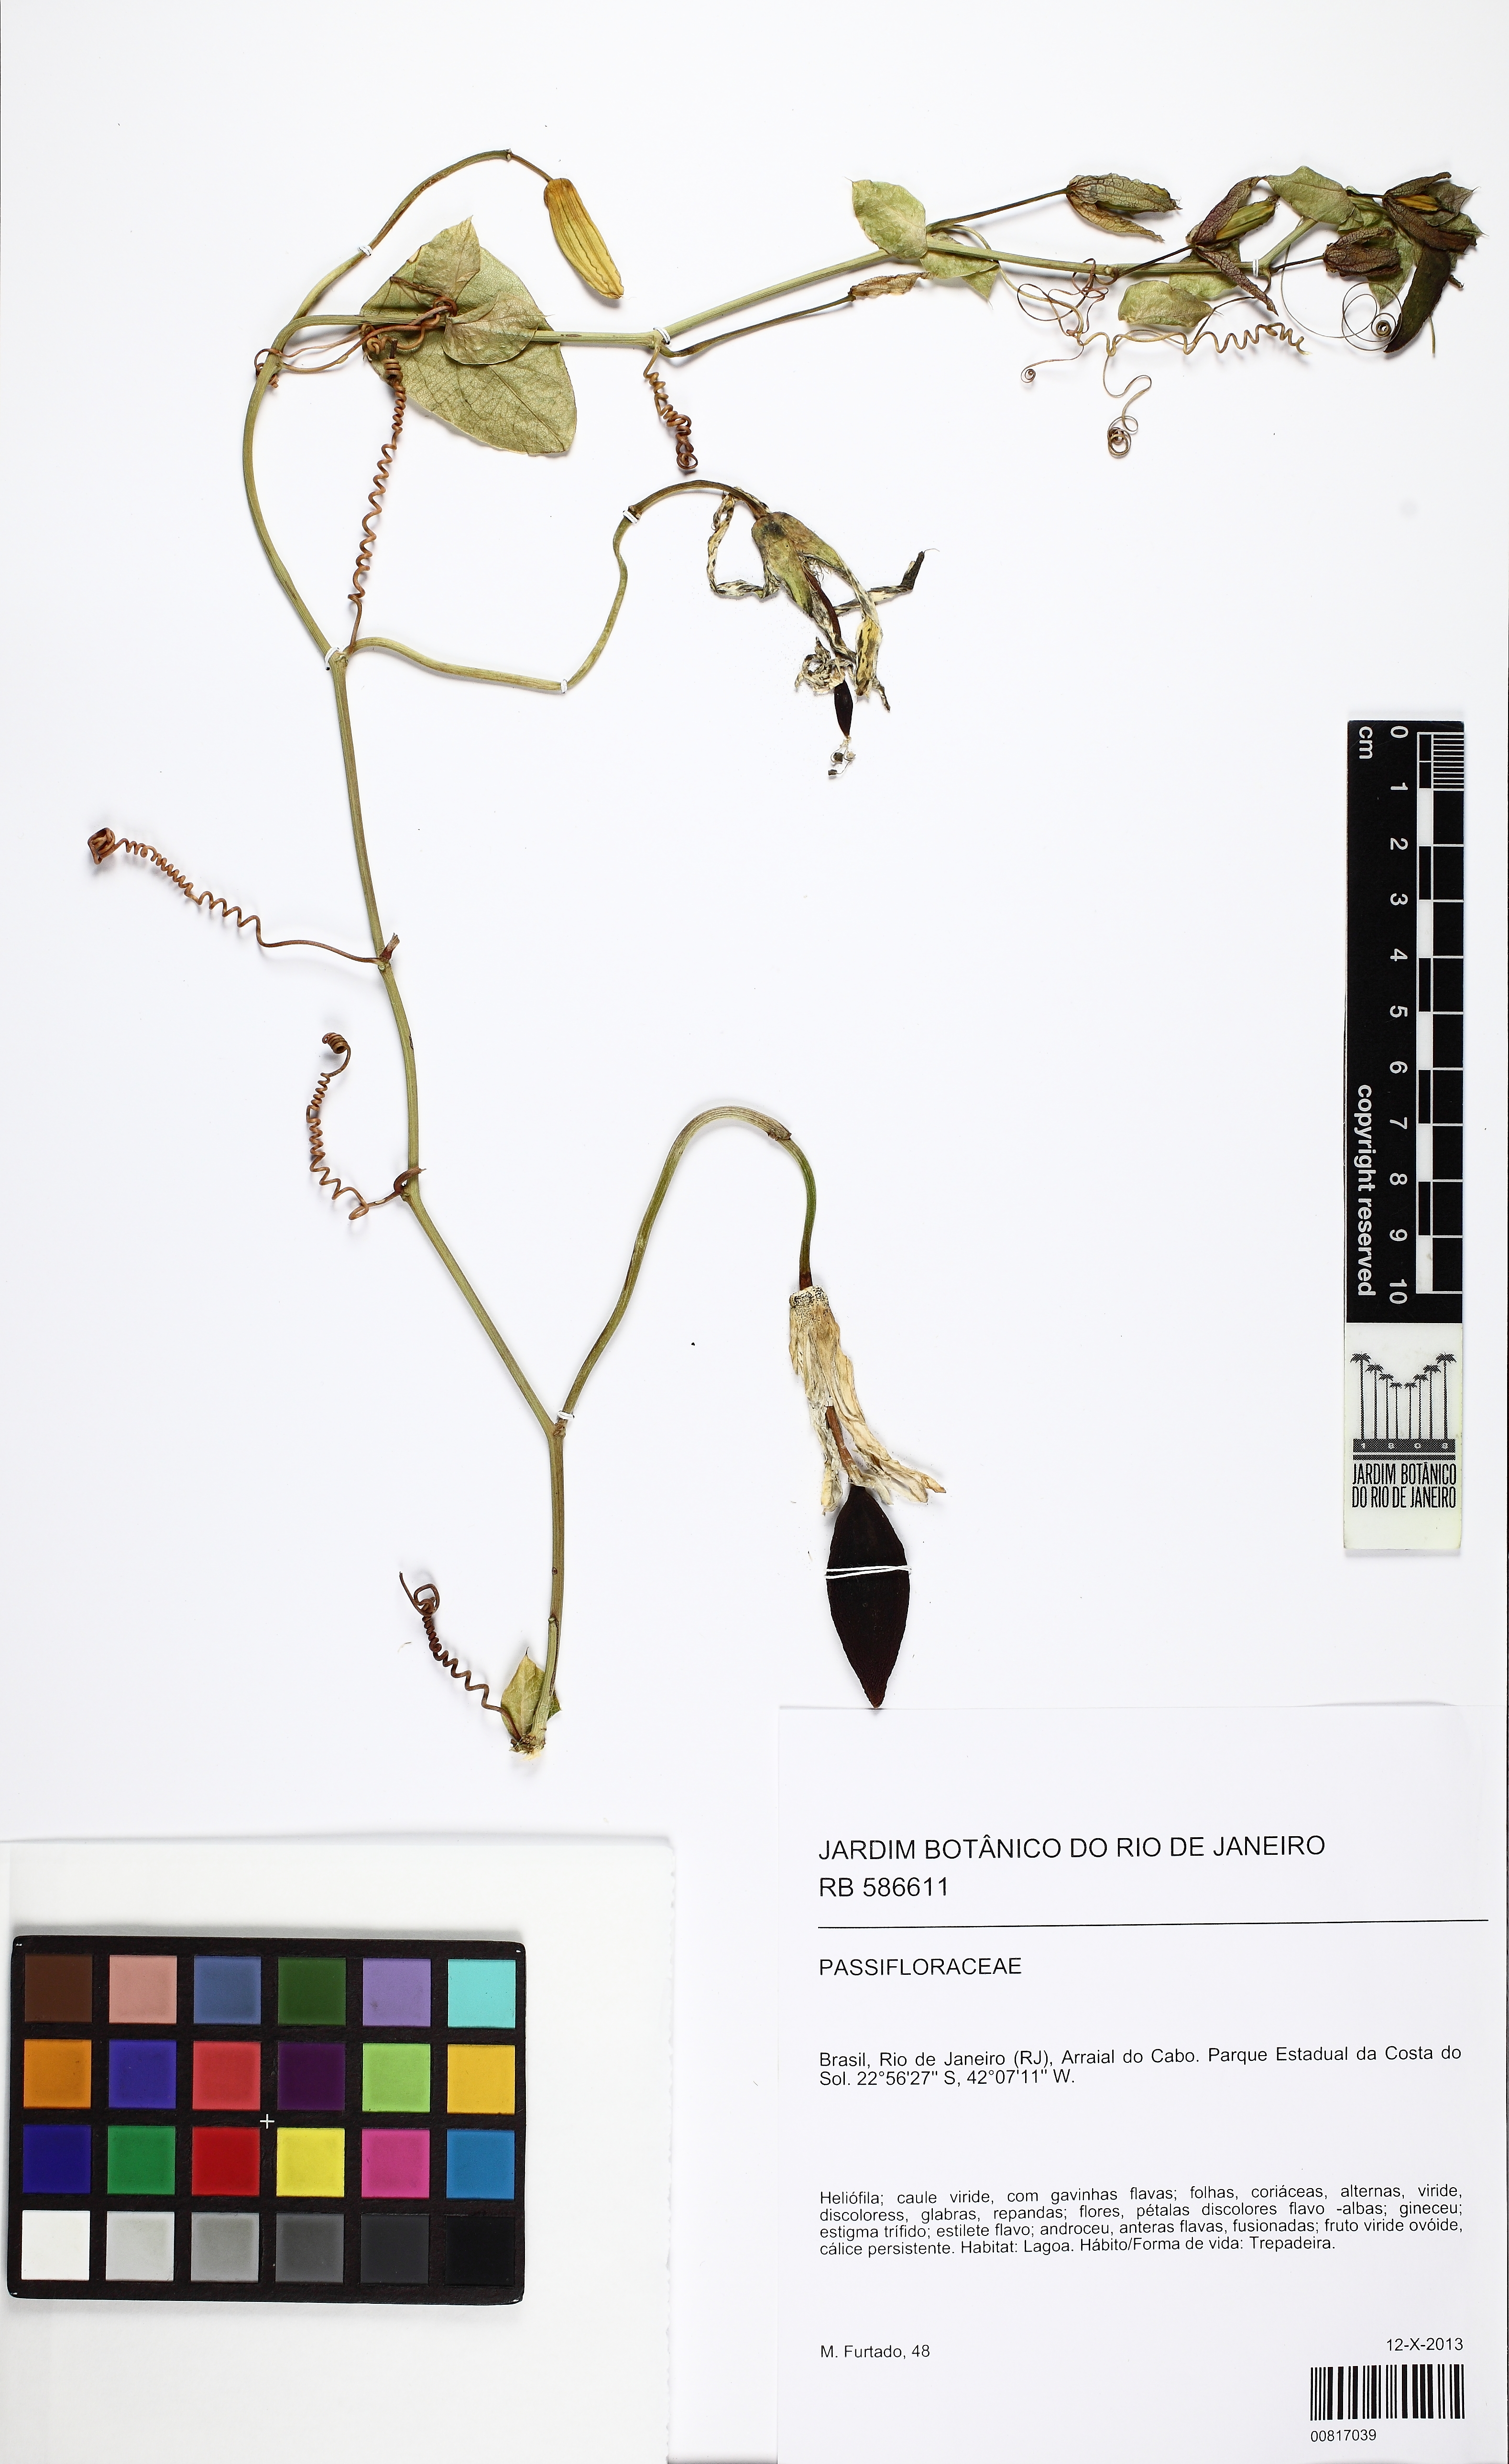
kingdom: Plantae
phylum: Tracheophyta
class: Magnoliopsida
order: Malpighiales
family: Passifloraceae
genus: Passiflora
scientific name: Passiflora silvestris
